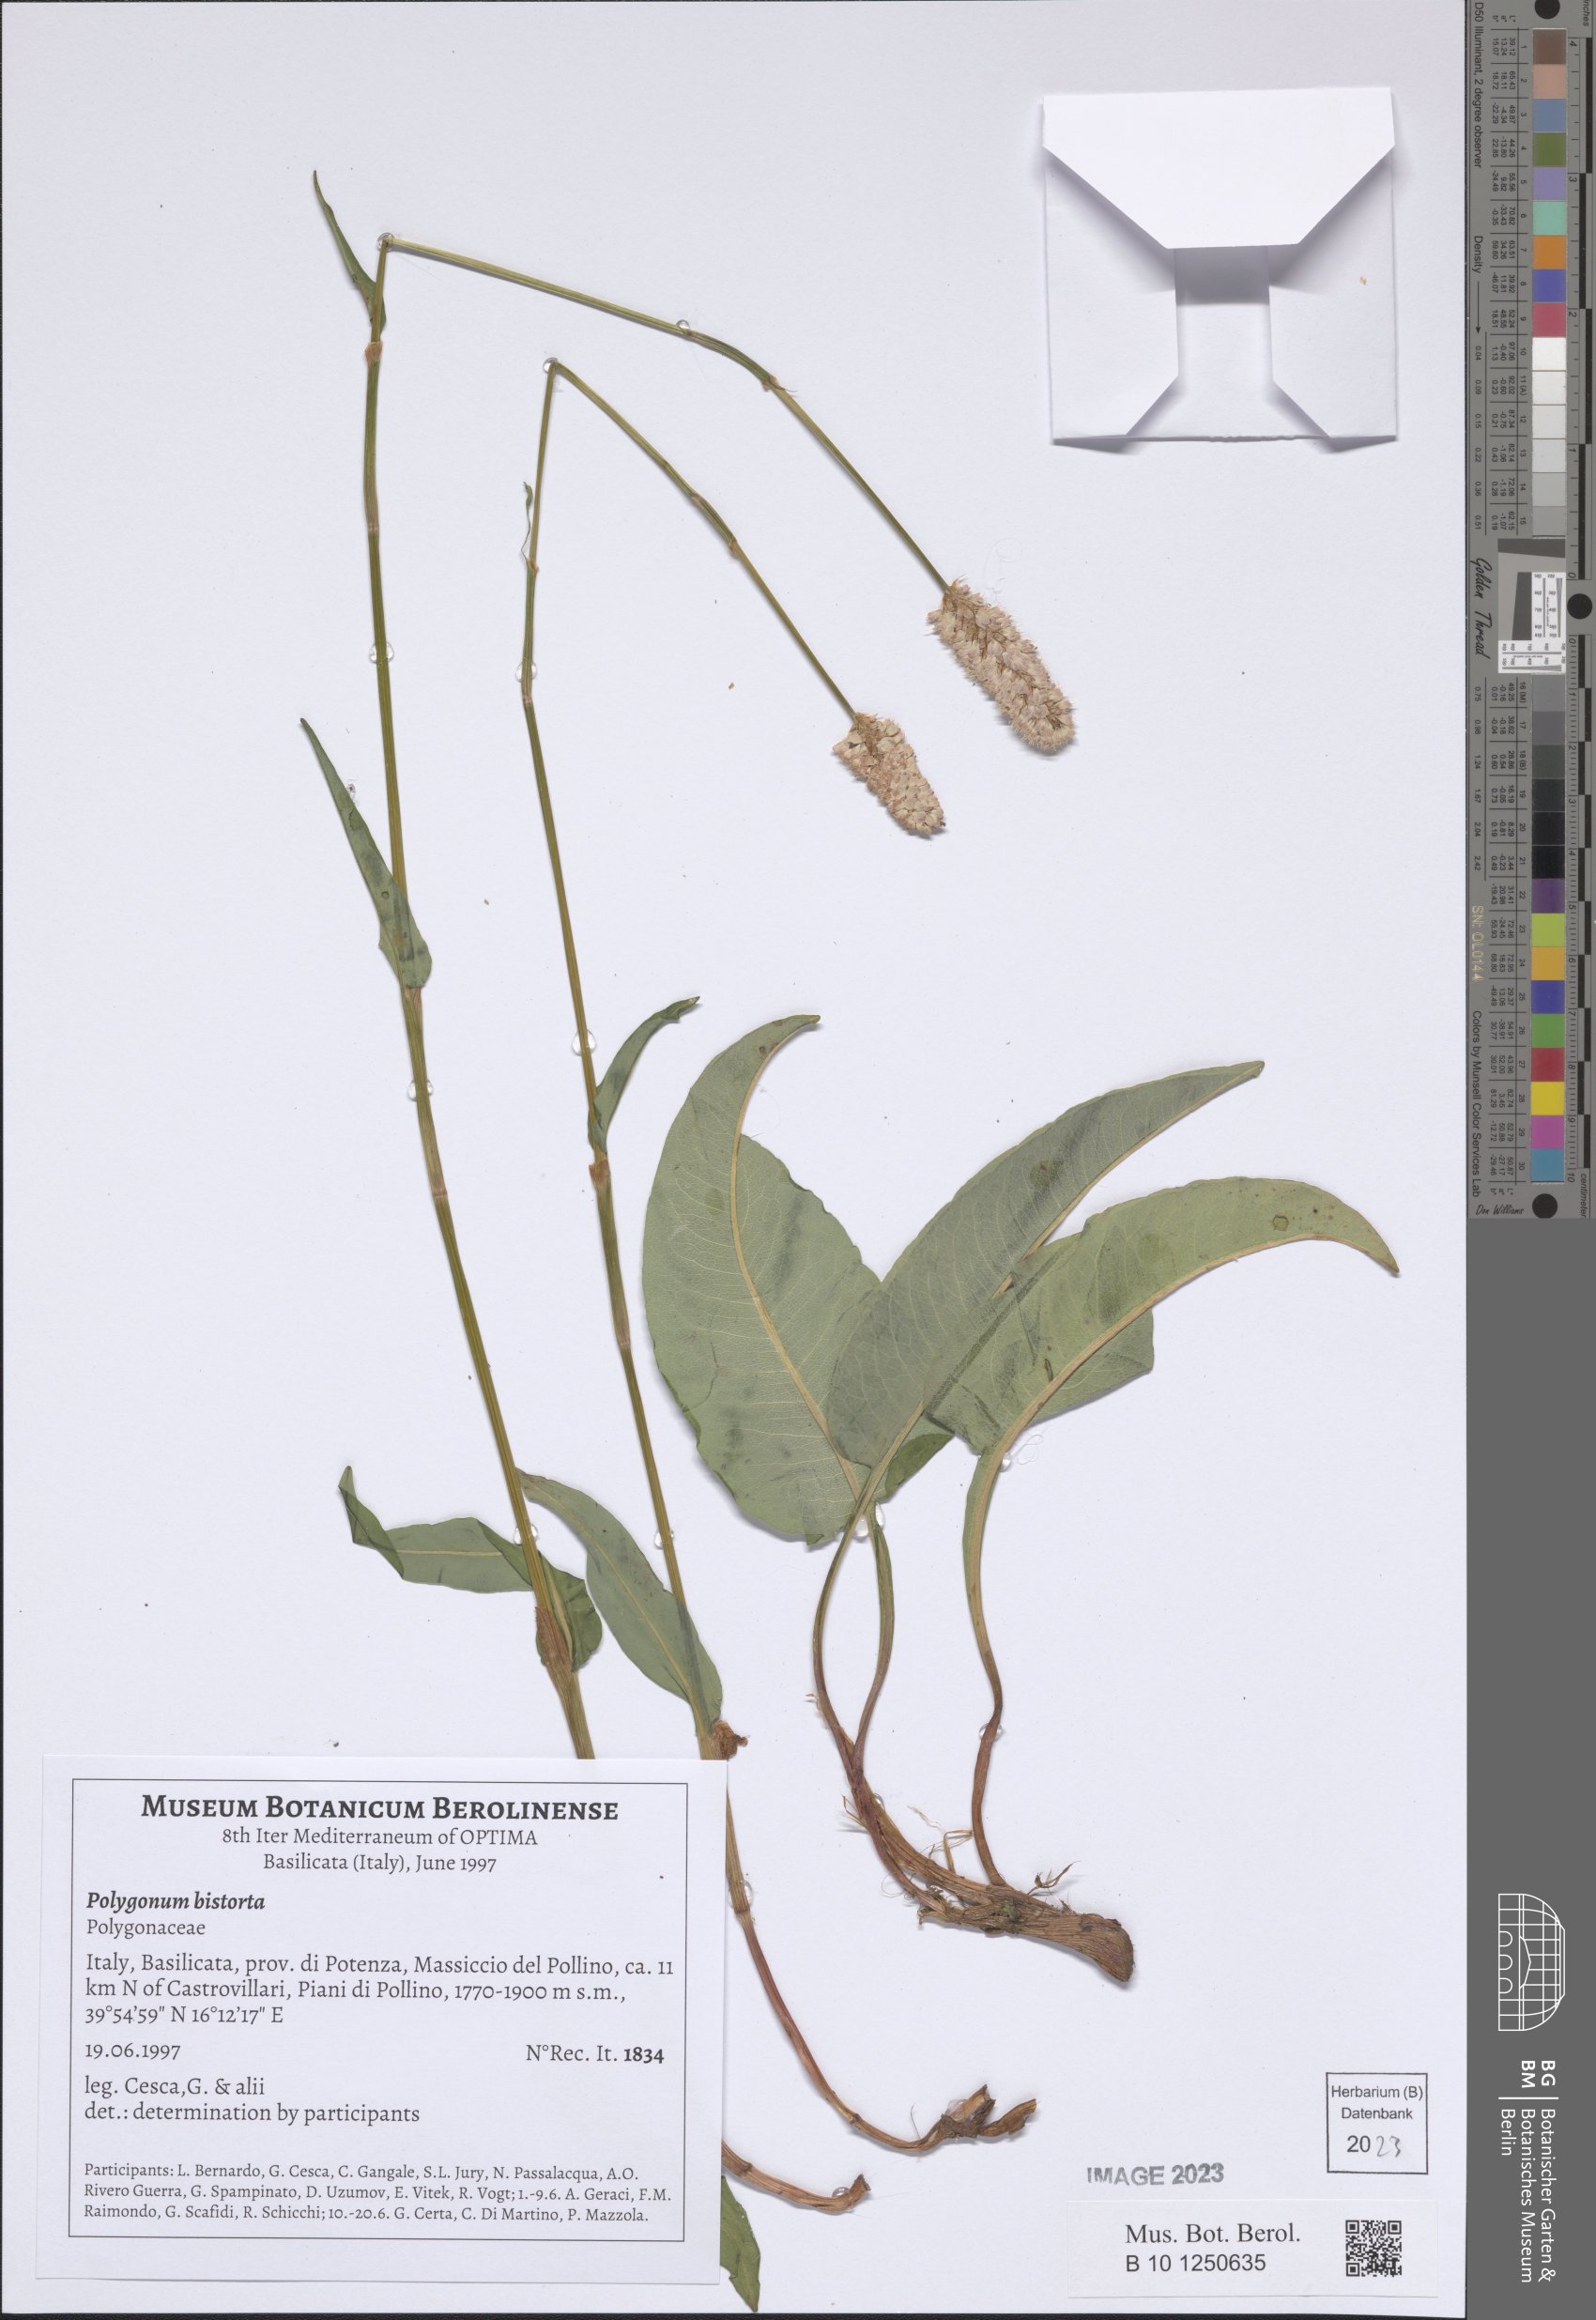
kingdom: Plantae
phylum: Tracheophyta
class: Magnoliopsida
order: Caryophyllales
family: Polygonaceae
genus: Bistorta
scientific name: Bistorta officinalis
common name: Common bistort
